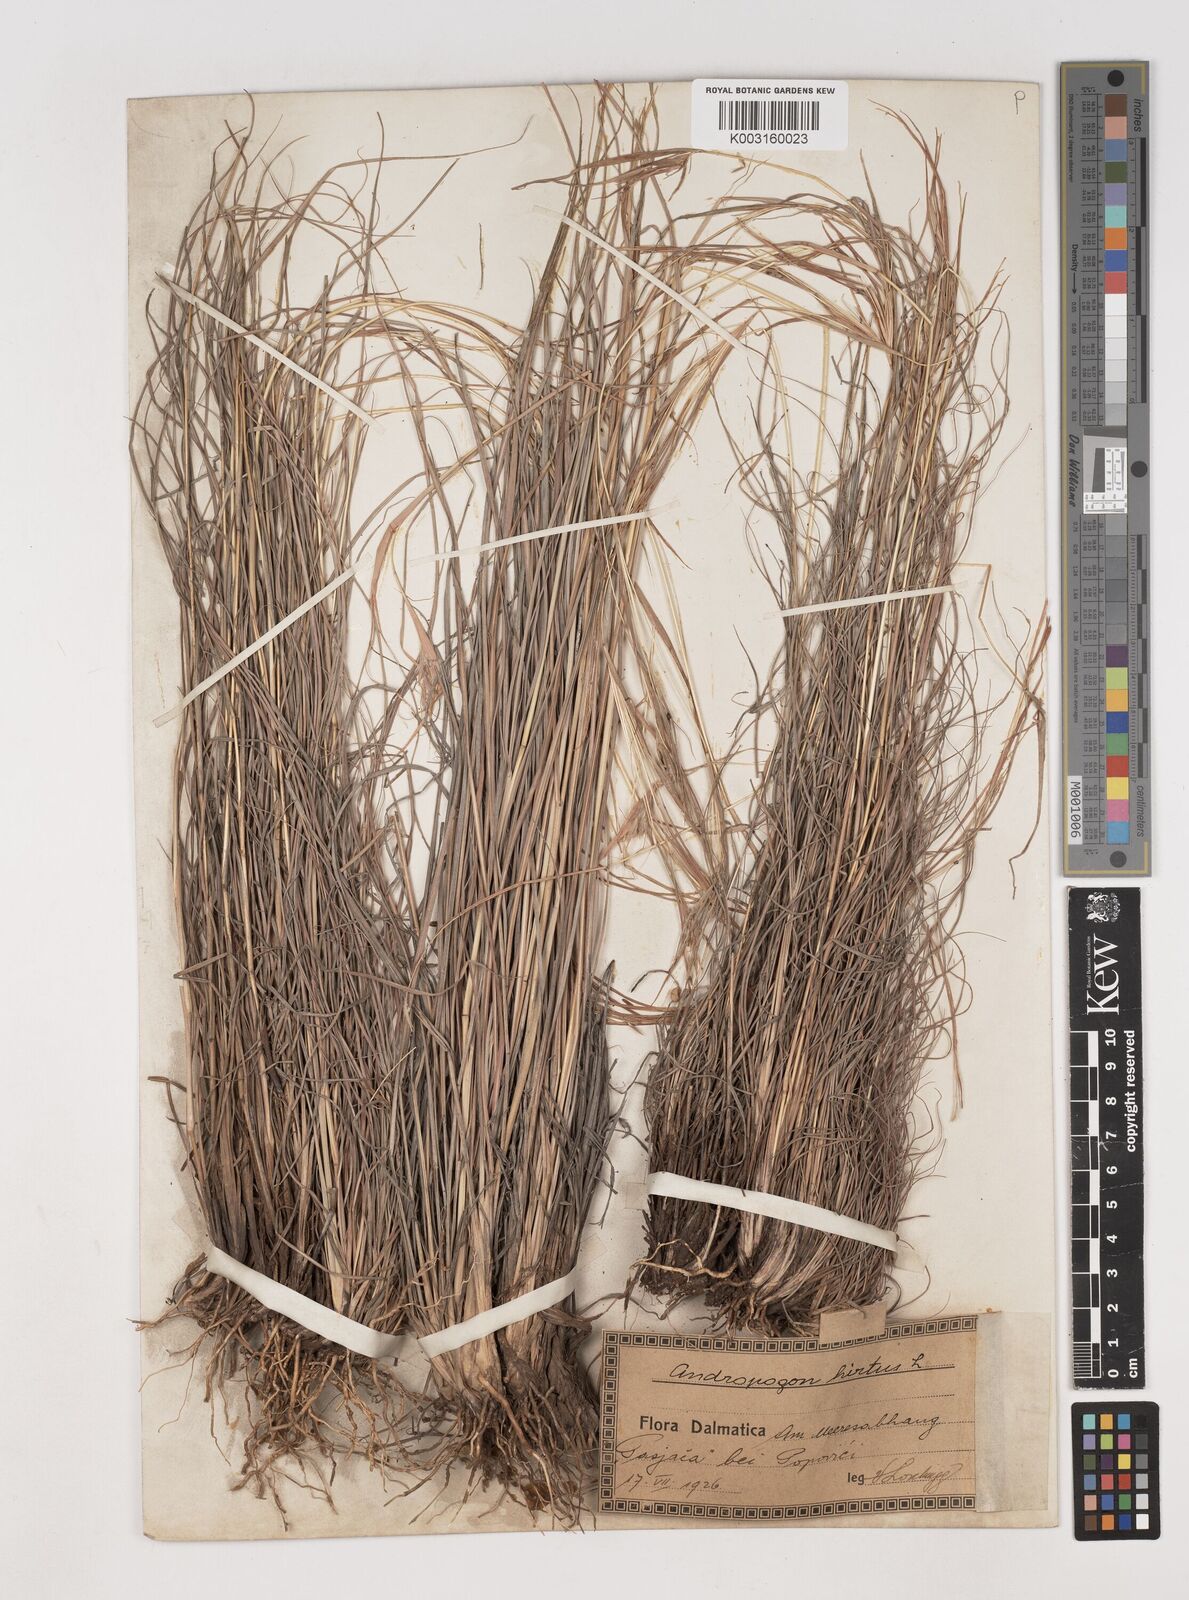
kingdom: Plantae
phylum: Tracheophyta
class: Liliopsida
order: Poales
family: Poaceae
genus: Hyparrhenia
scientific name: Hyparrhenia hirta
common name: Thatching grass
